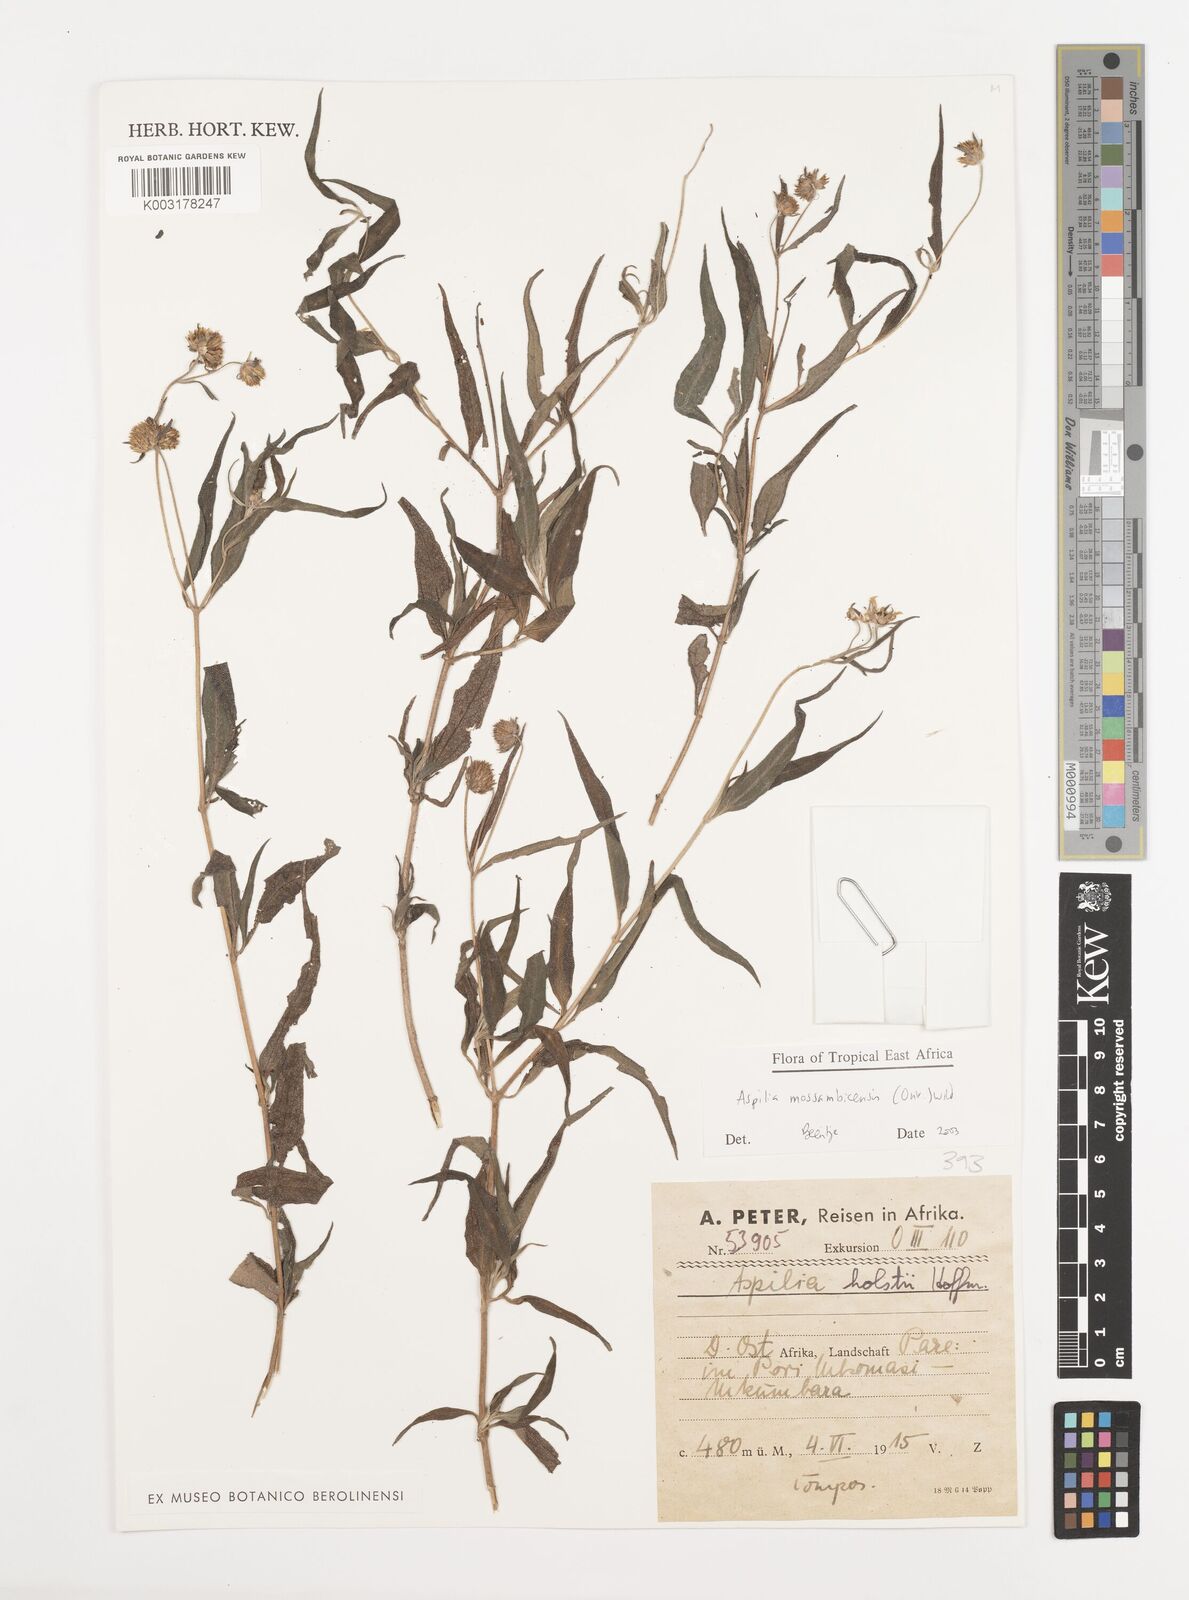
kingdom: Plantae
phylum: Tracheophyta
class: Magnoliopsida
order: Asterales
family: Asteraceae
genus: Aspilia
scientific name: Aspilia mossambicensis
